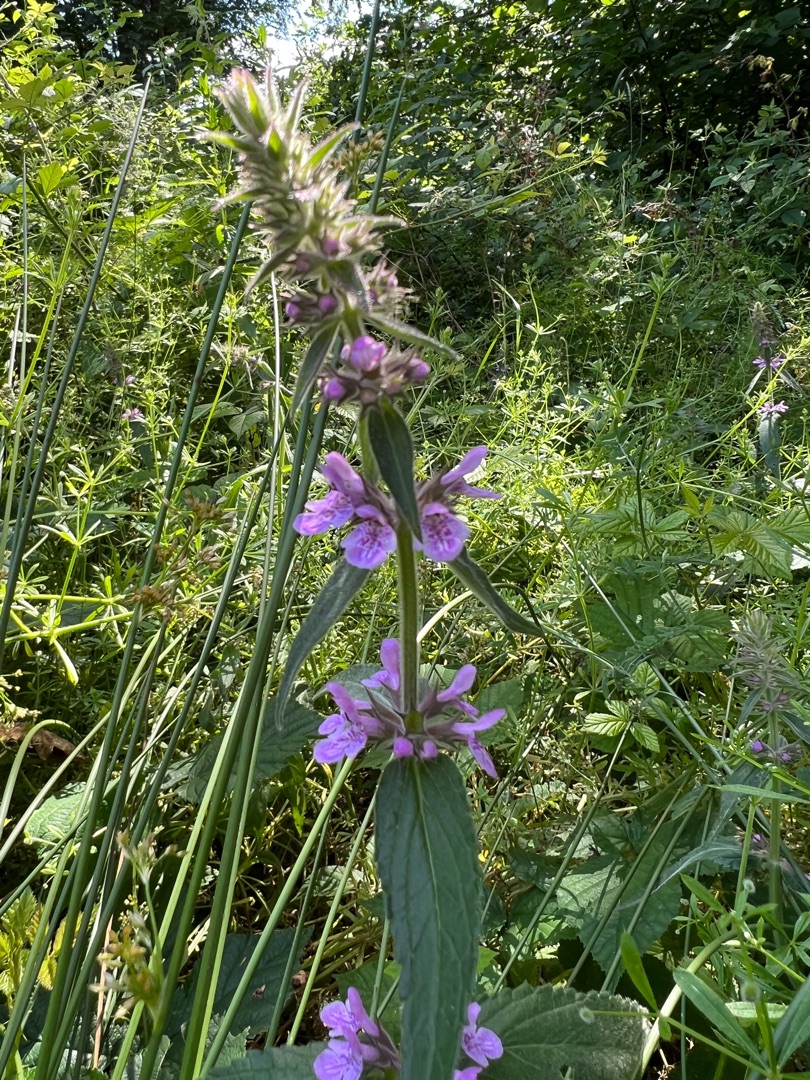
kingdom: Plantae
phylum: Tracheophyta
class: Magnoliopsida
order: Lamiales
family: Lamiaceae
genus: Stachys
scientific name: Stachys palustris
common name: Kær-galtetand
